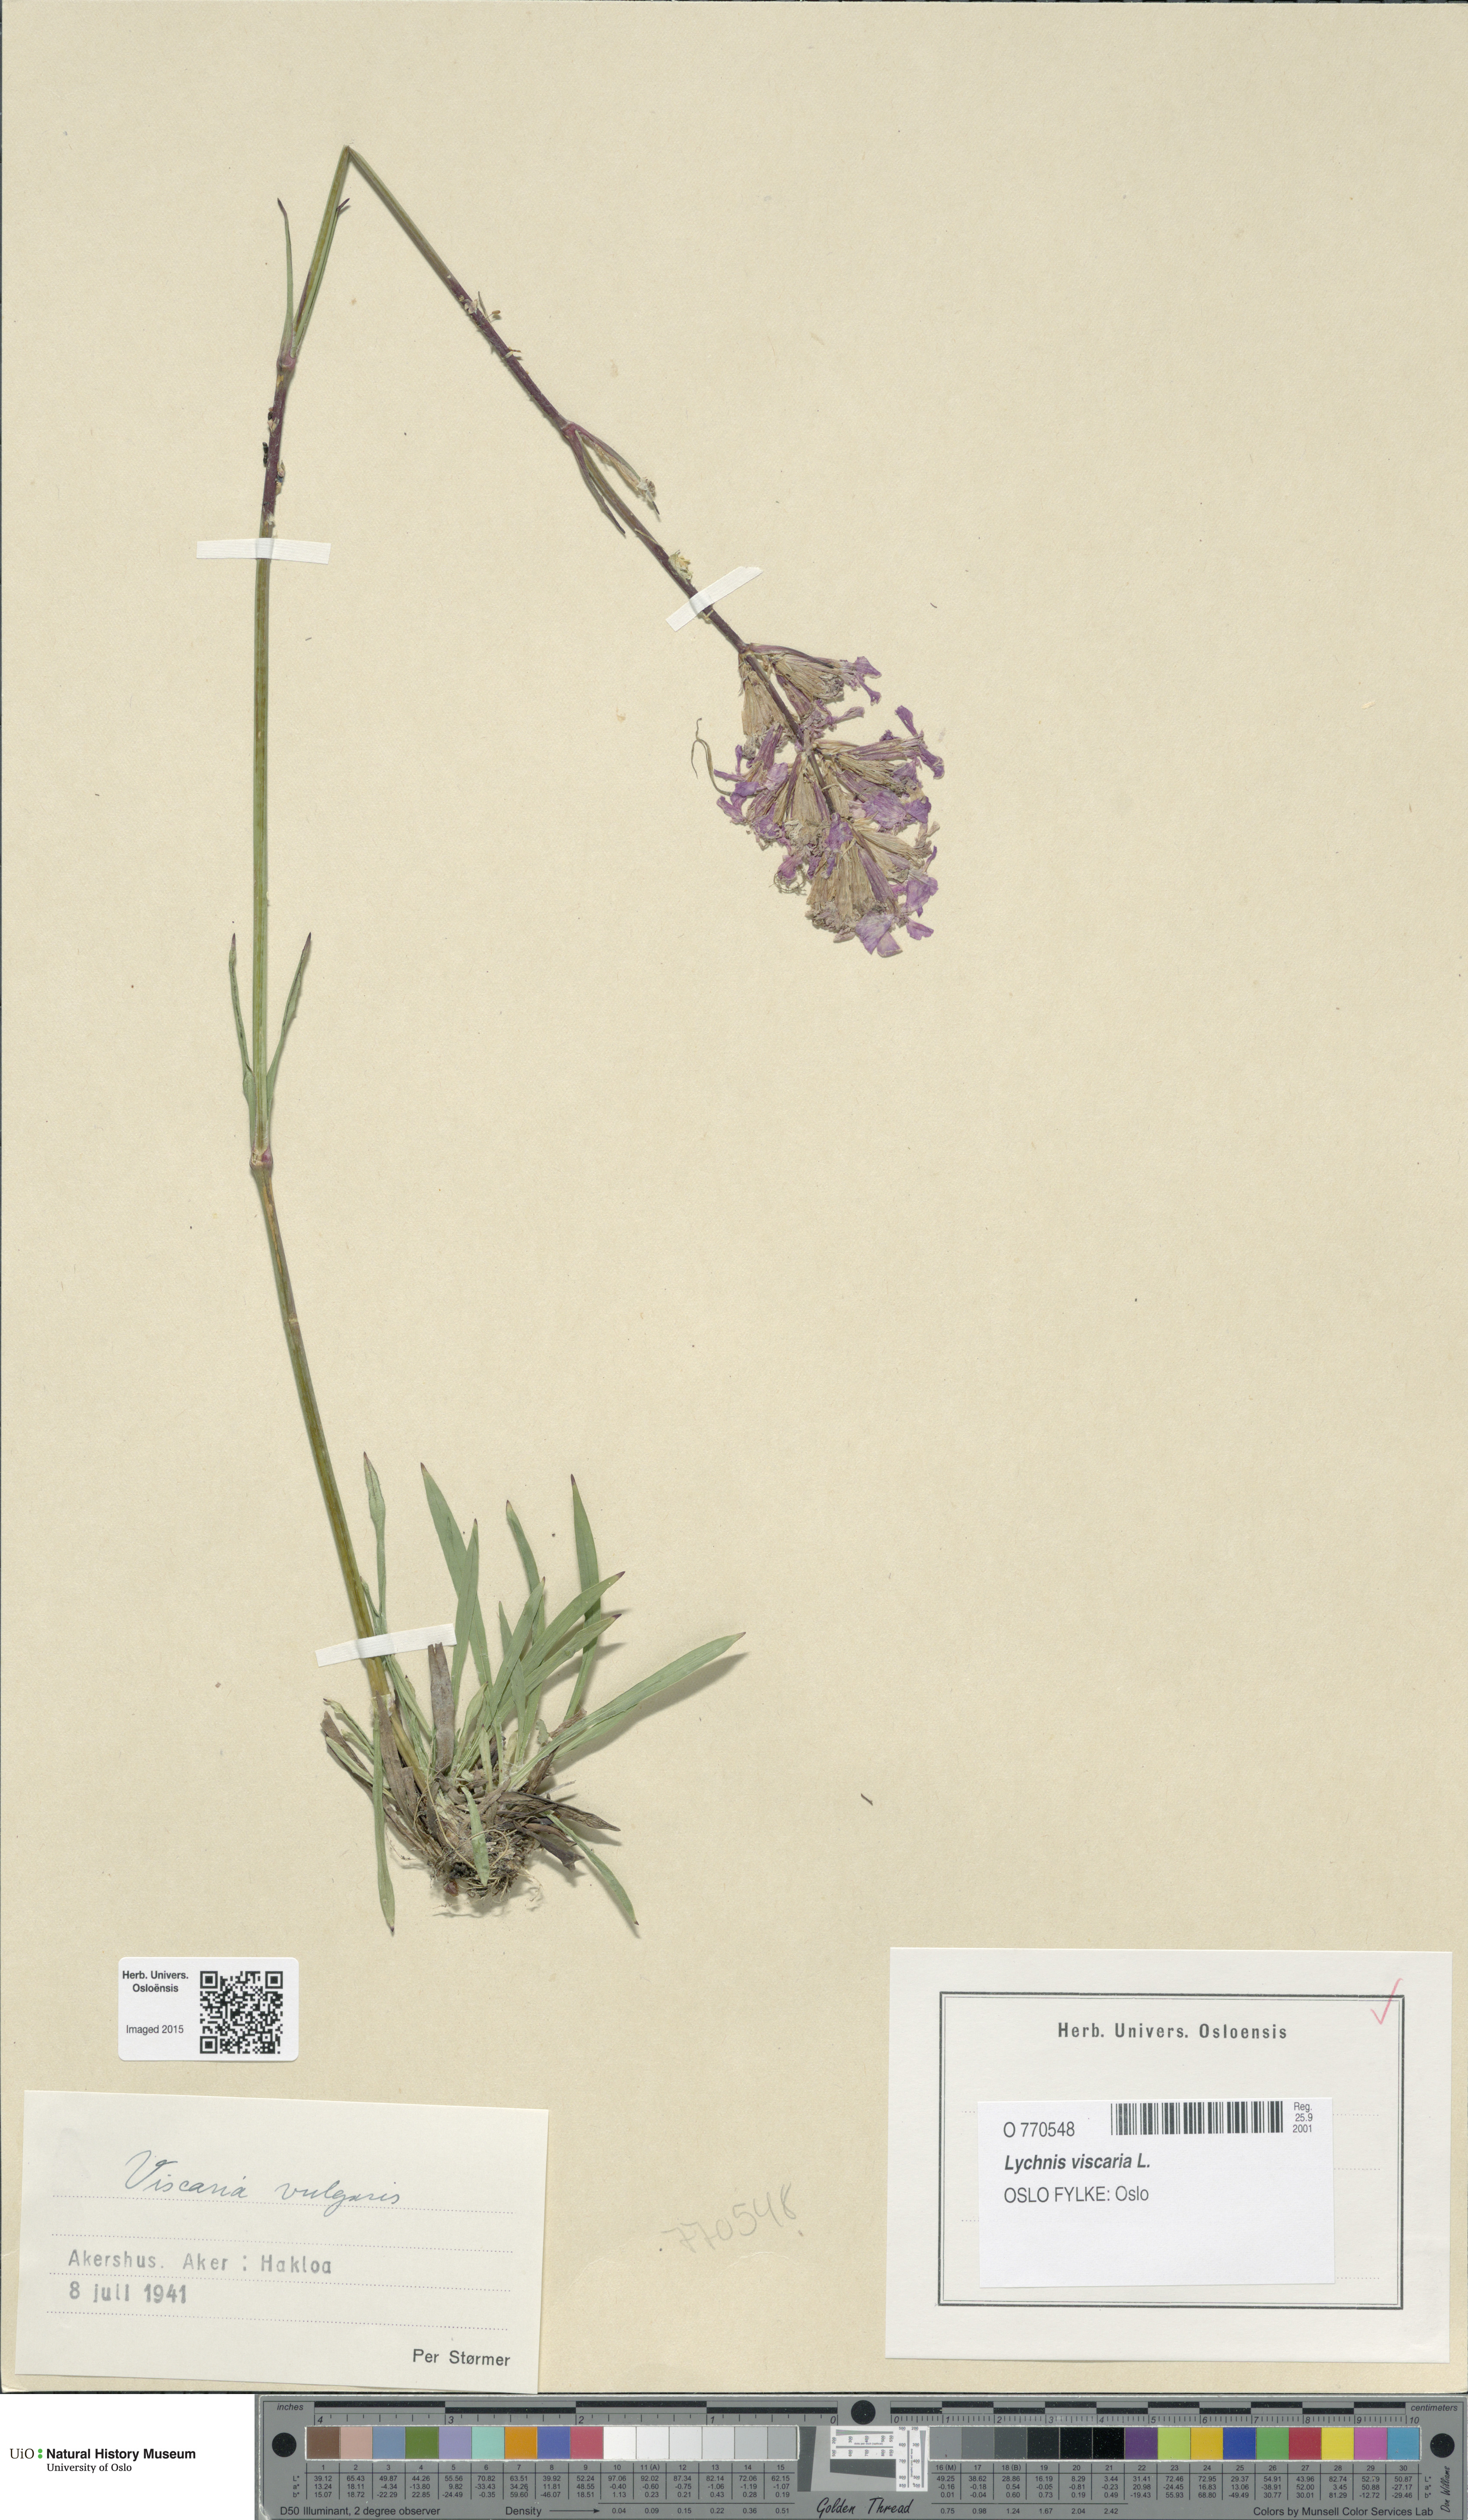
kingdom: Plantae
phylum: Tracheophyta
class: Magnoliopsida
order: Caryophyllales
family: Caryophyllaceae
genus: Viscaria
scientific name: Viscaria vulgaris
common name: Clammy campion
